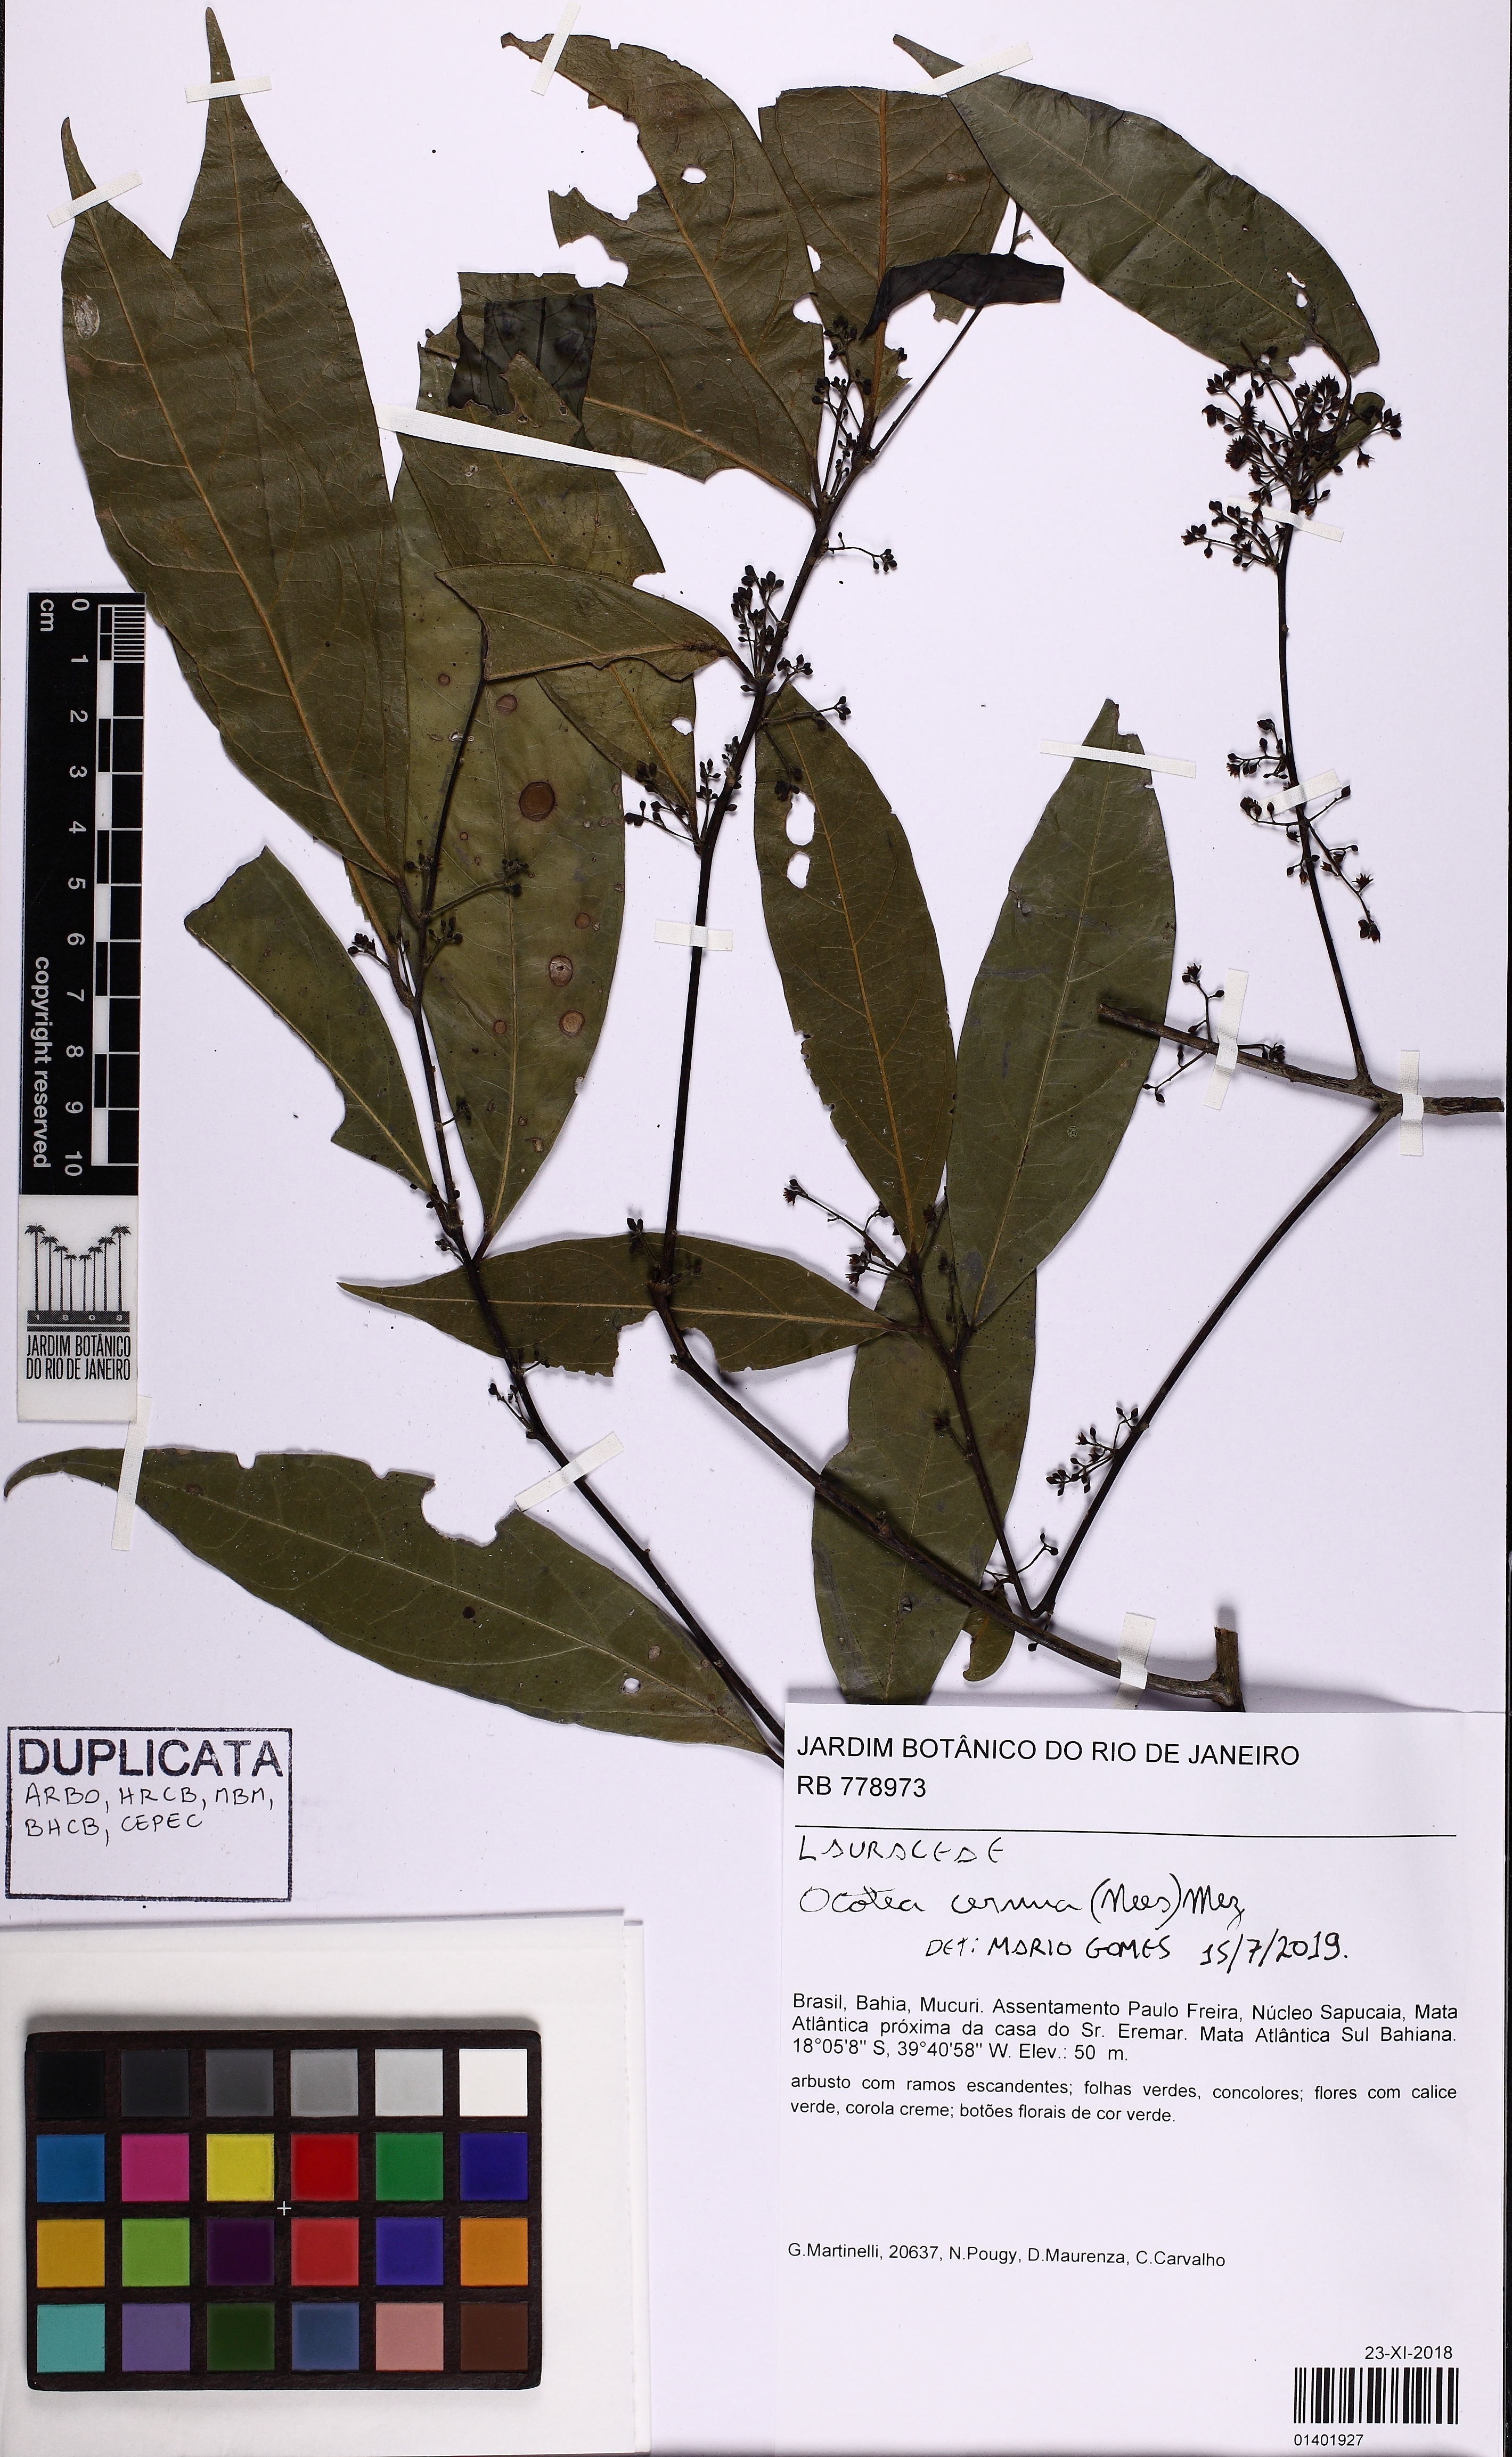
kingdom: Plantae
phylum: Tracheophyta
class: Magnoliopsida
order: Laurales
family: Lauraceae
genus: Ocotea
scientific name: Ocotea leptobotra
